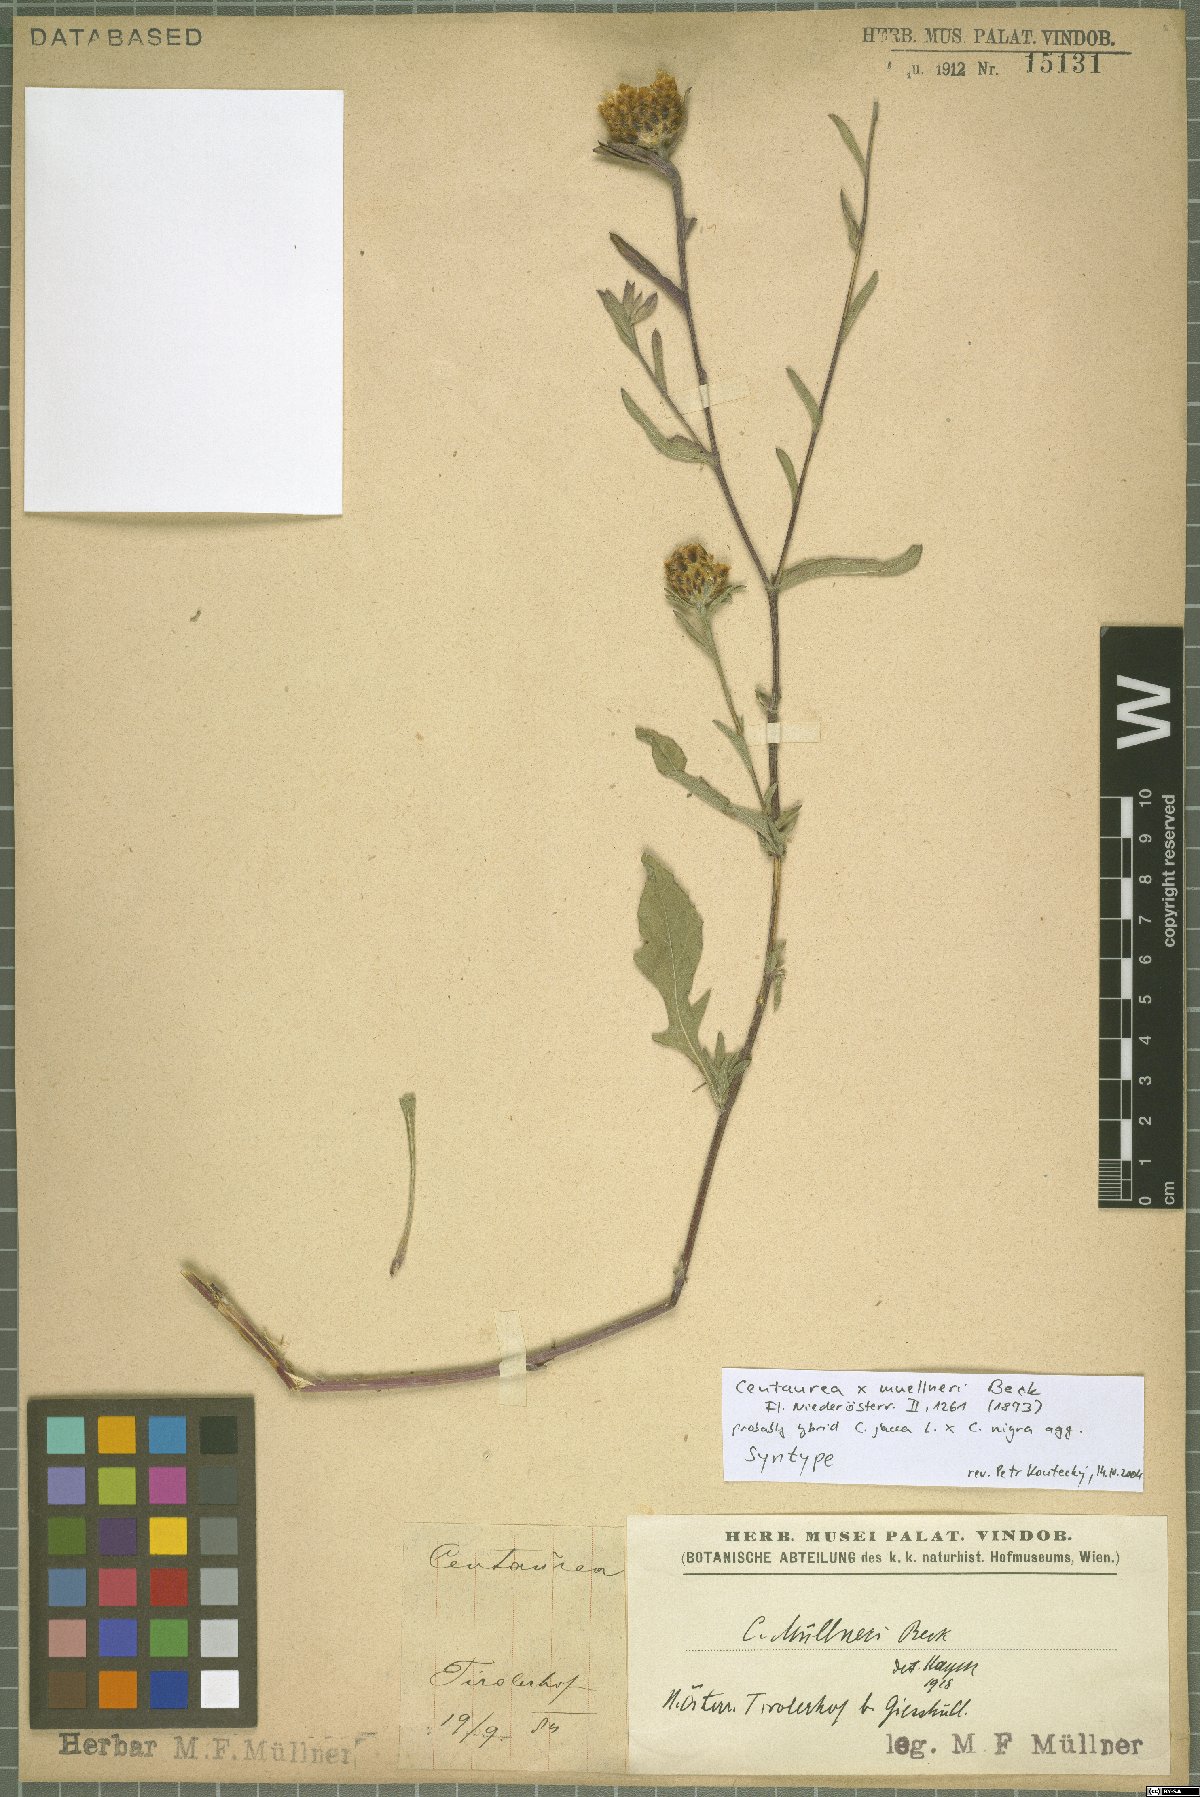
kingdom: Plantae
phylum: Tracheophyta
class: Magnoliopsida
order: Asterales
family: Asteraceae
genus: Centaurea
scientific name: Centaurea
